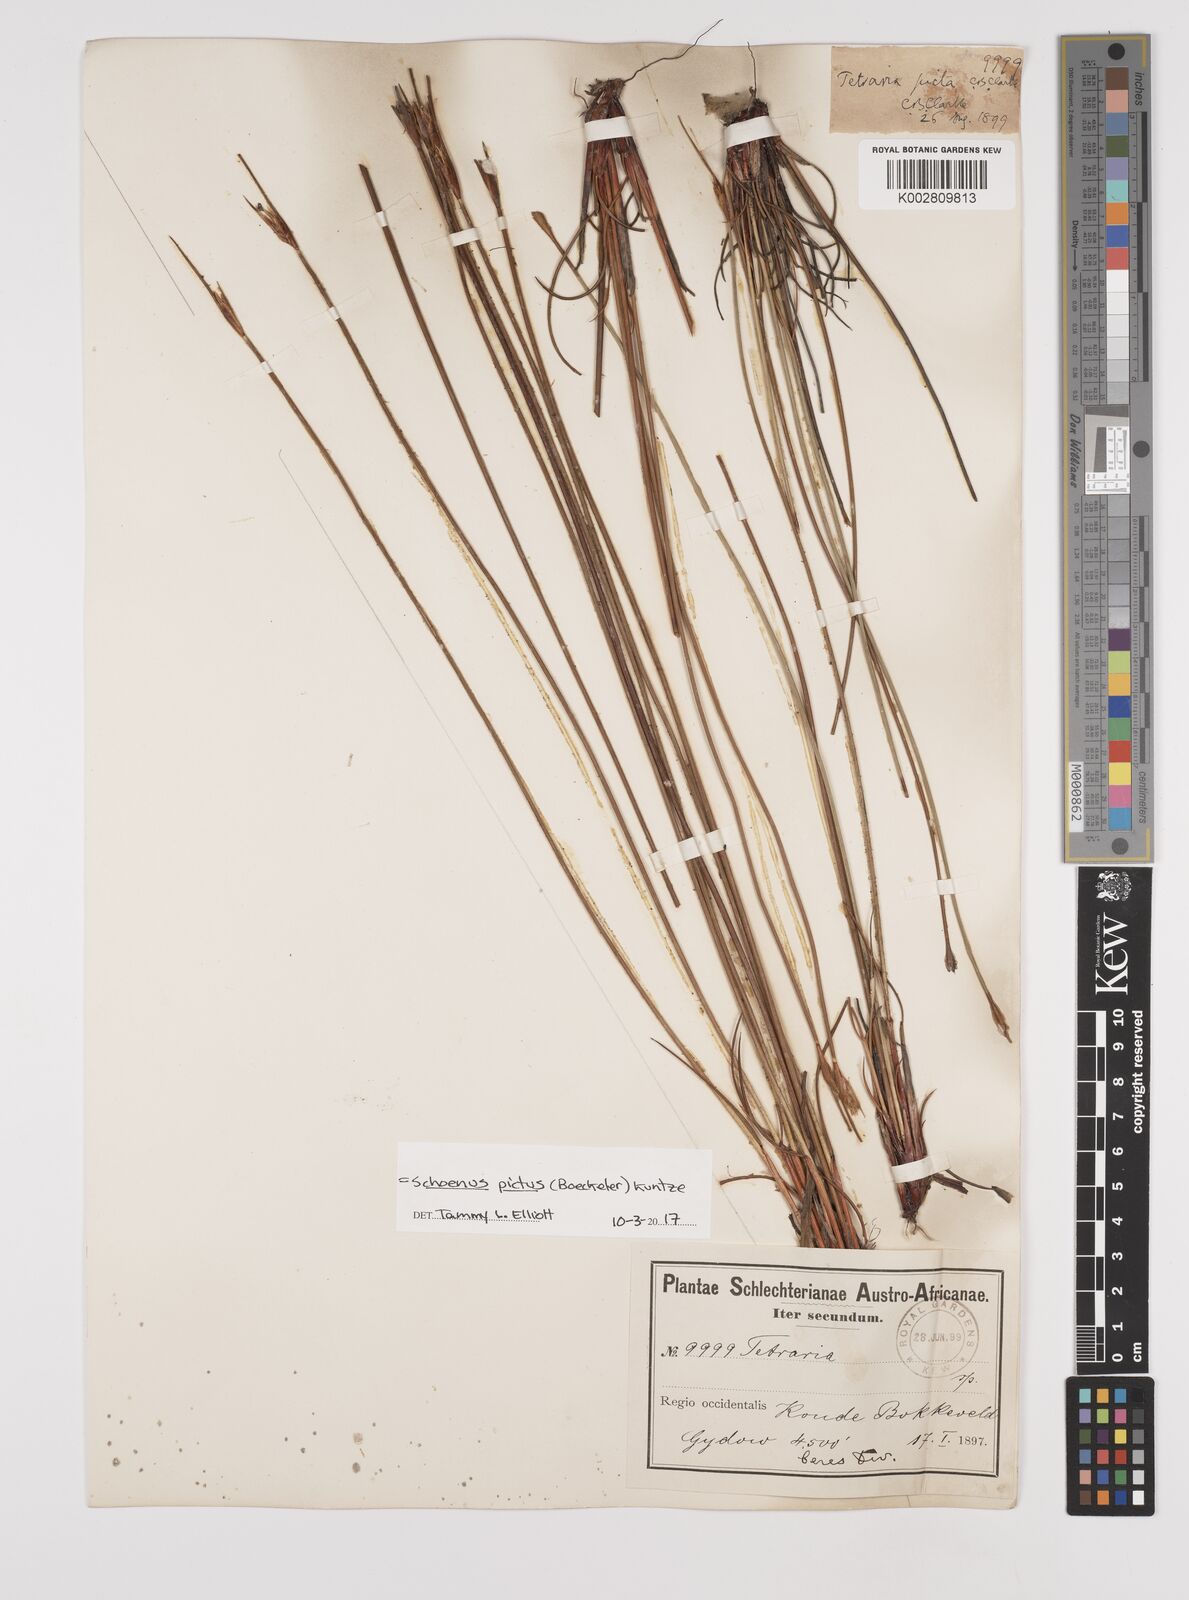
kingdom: Plantae
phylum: Tracheophyta
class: Liliopsida
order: Poales
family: Cyperaceae
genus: Schoenus
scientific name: Schoenus pictus
